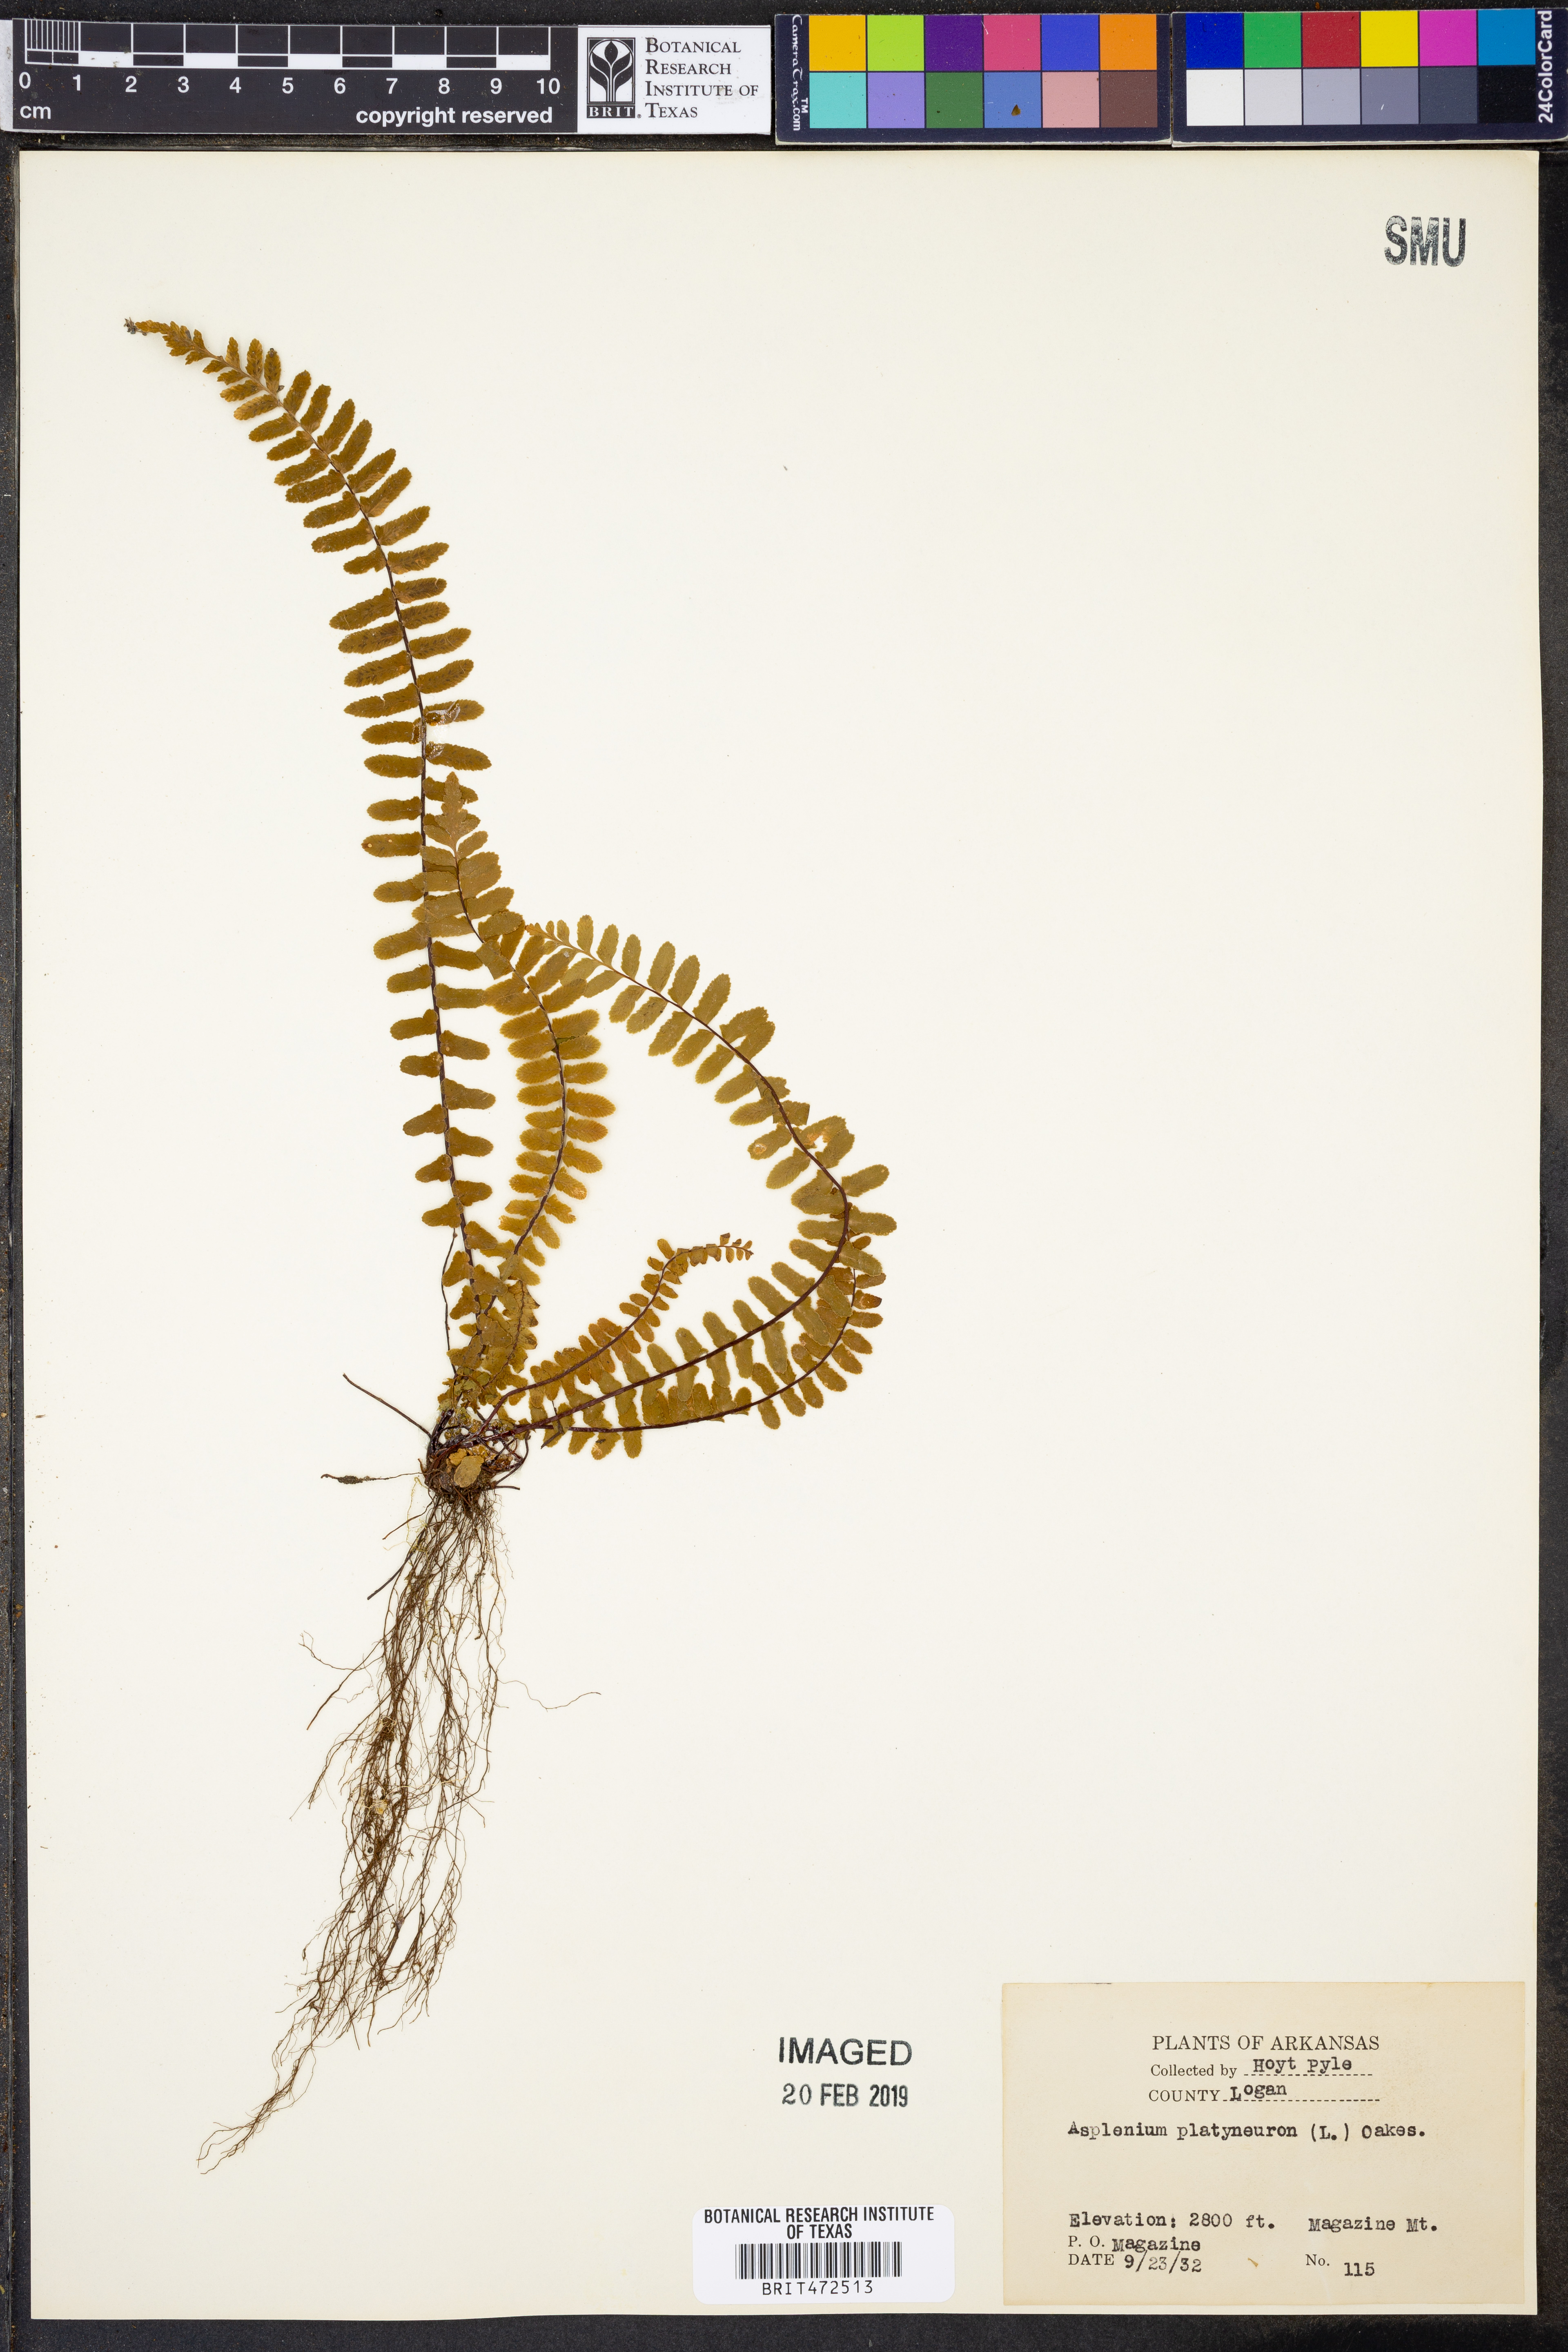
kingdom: Plantae
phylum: Tracheophyta
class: Polypodiopsida
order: Polypodiales
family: Aspleniaceae
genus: Asplenium
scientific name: Asplenium platyneuron
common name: Ebony spleenwort
